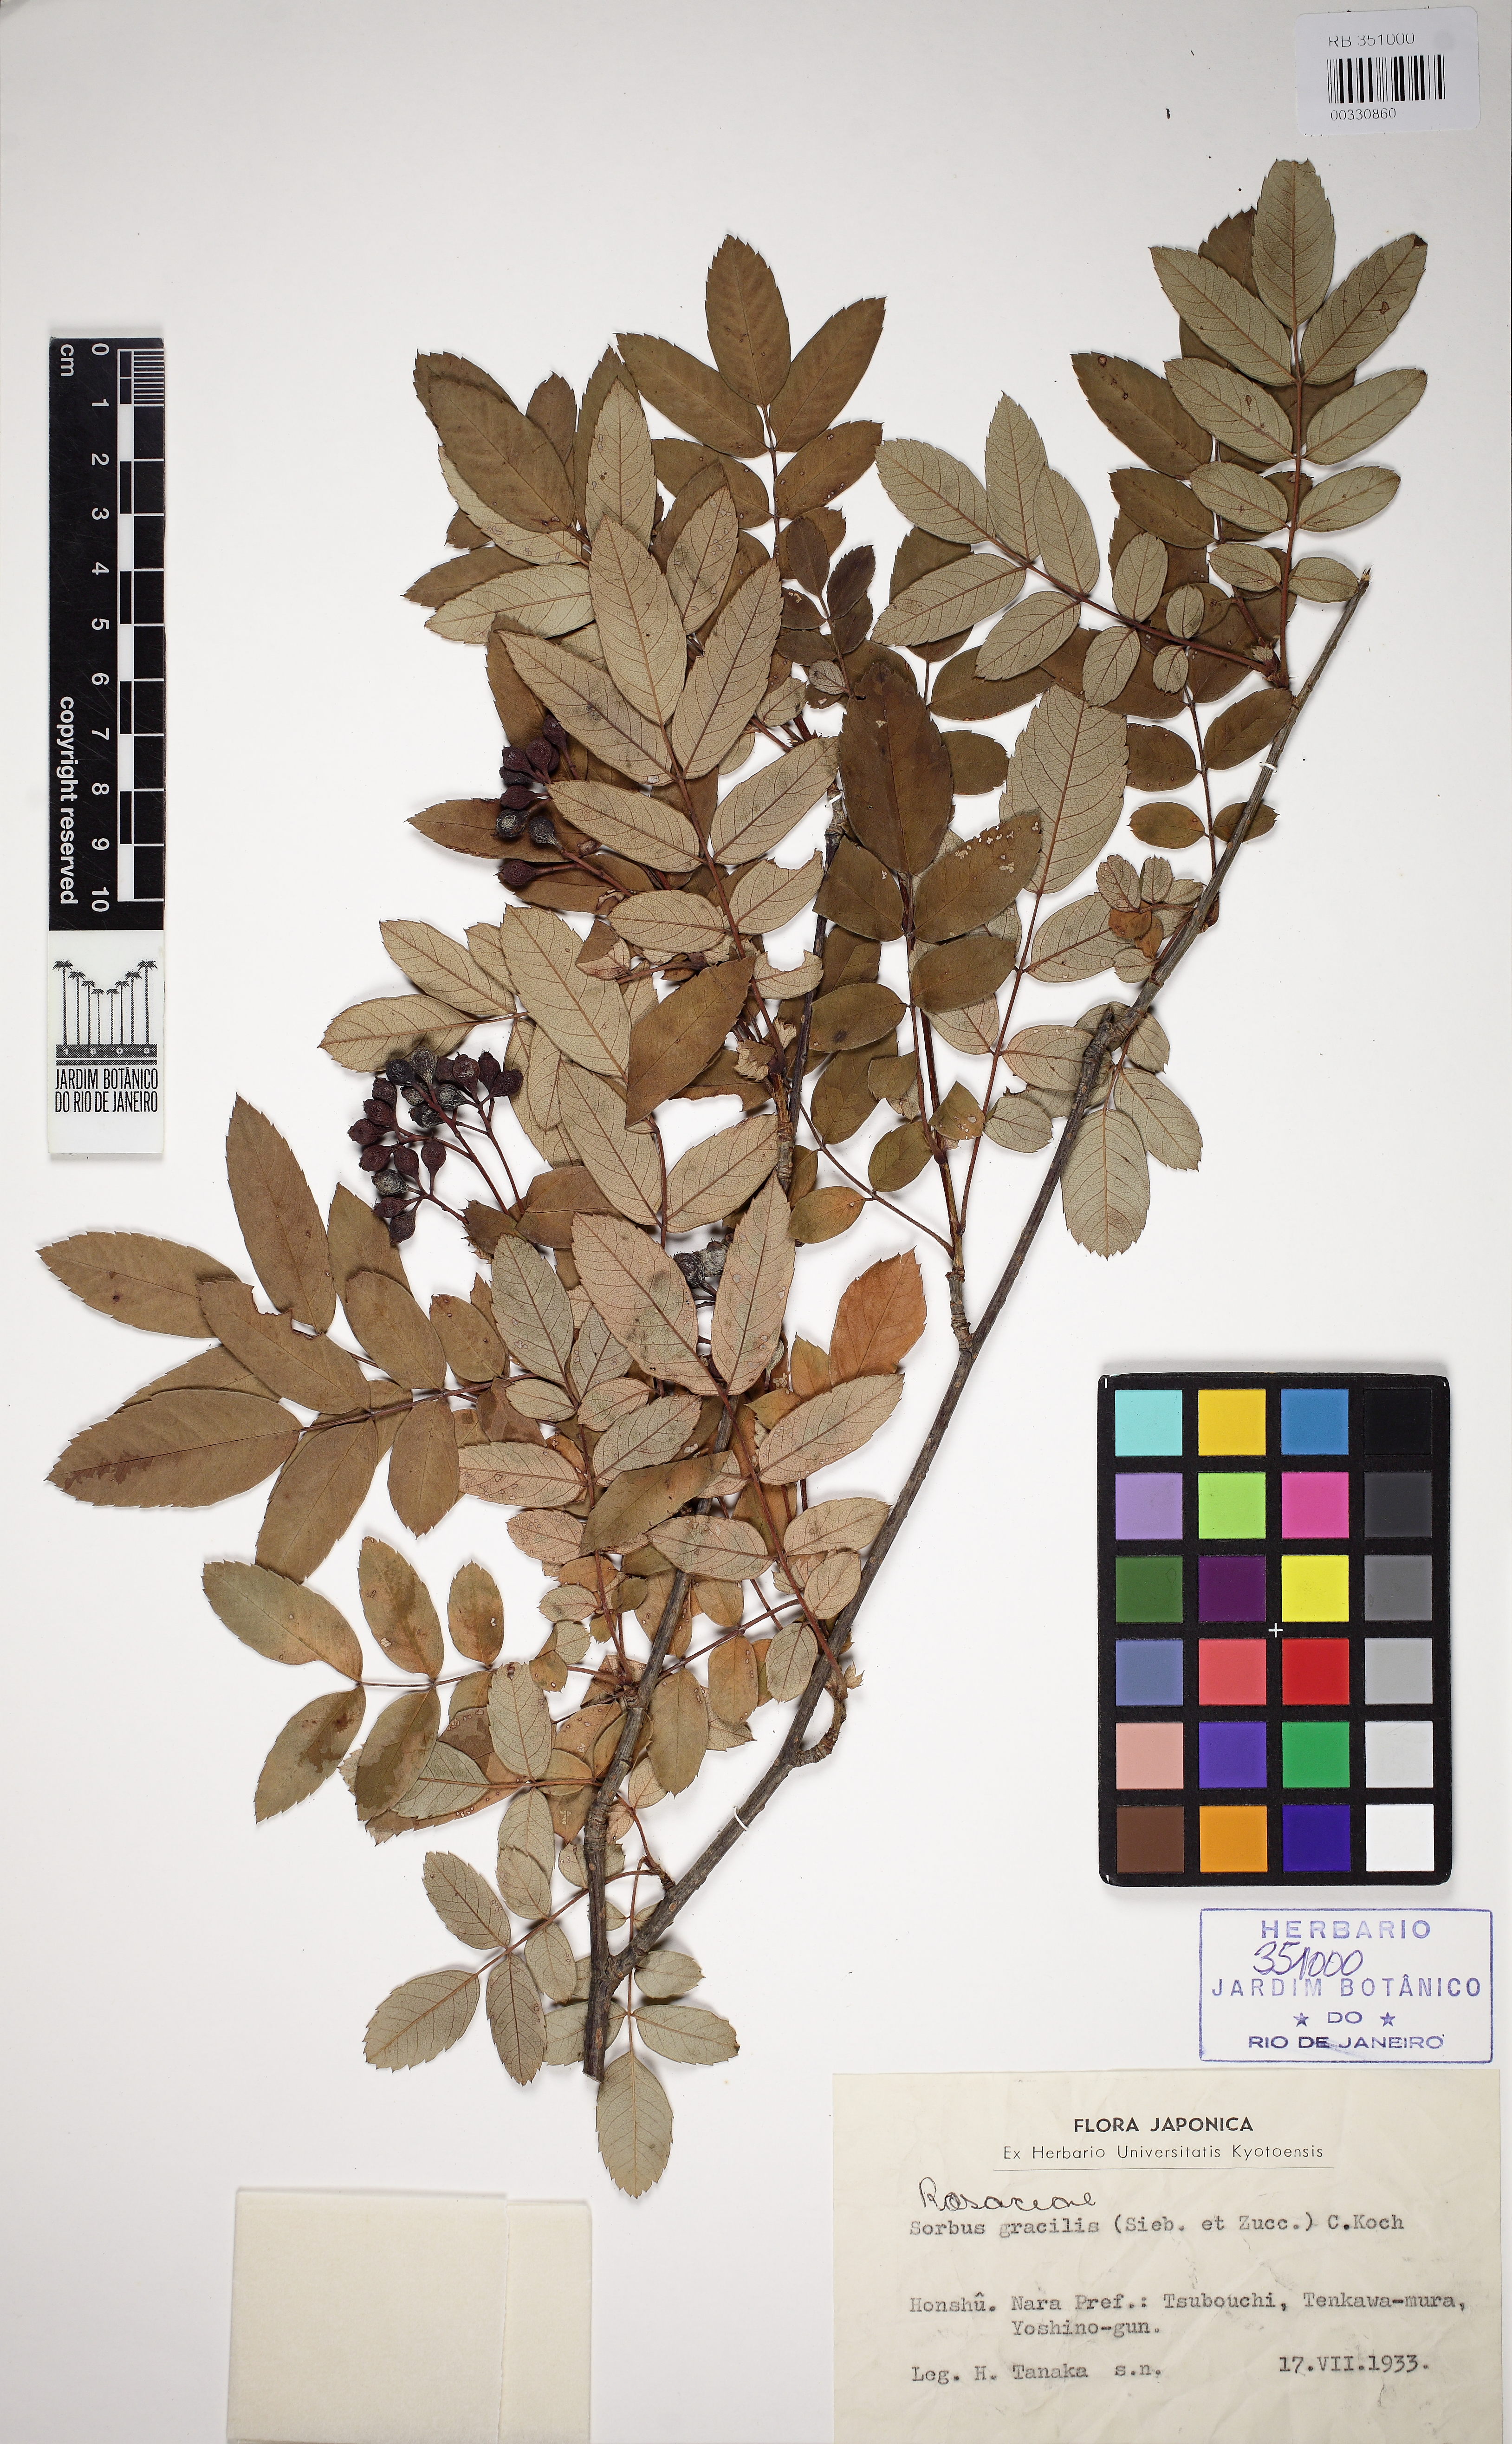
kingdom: Plantae
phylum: Tracheophyta
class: Magnoliopsida
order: Rosales
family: Rosaceae
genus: Sorbus
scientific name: Sorbus gracilis
